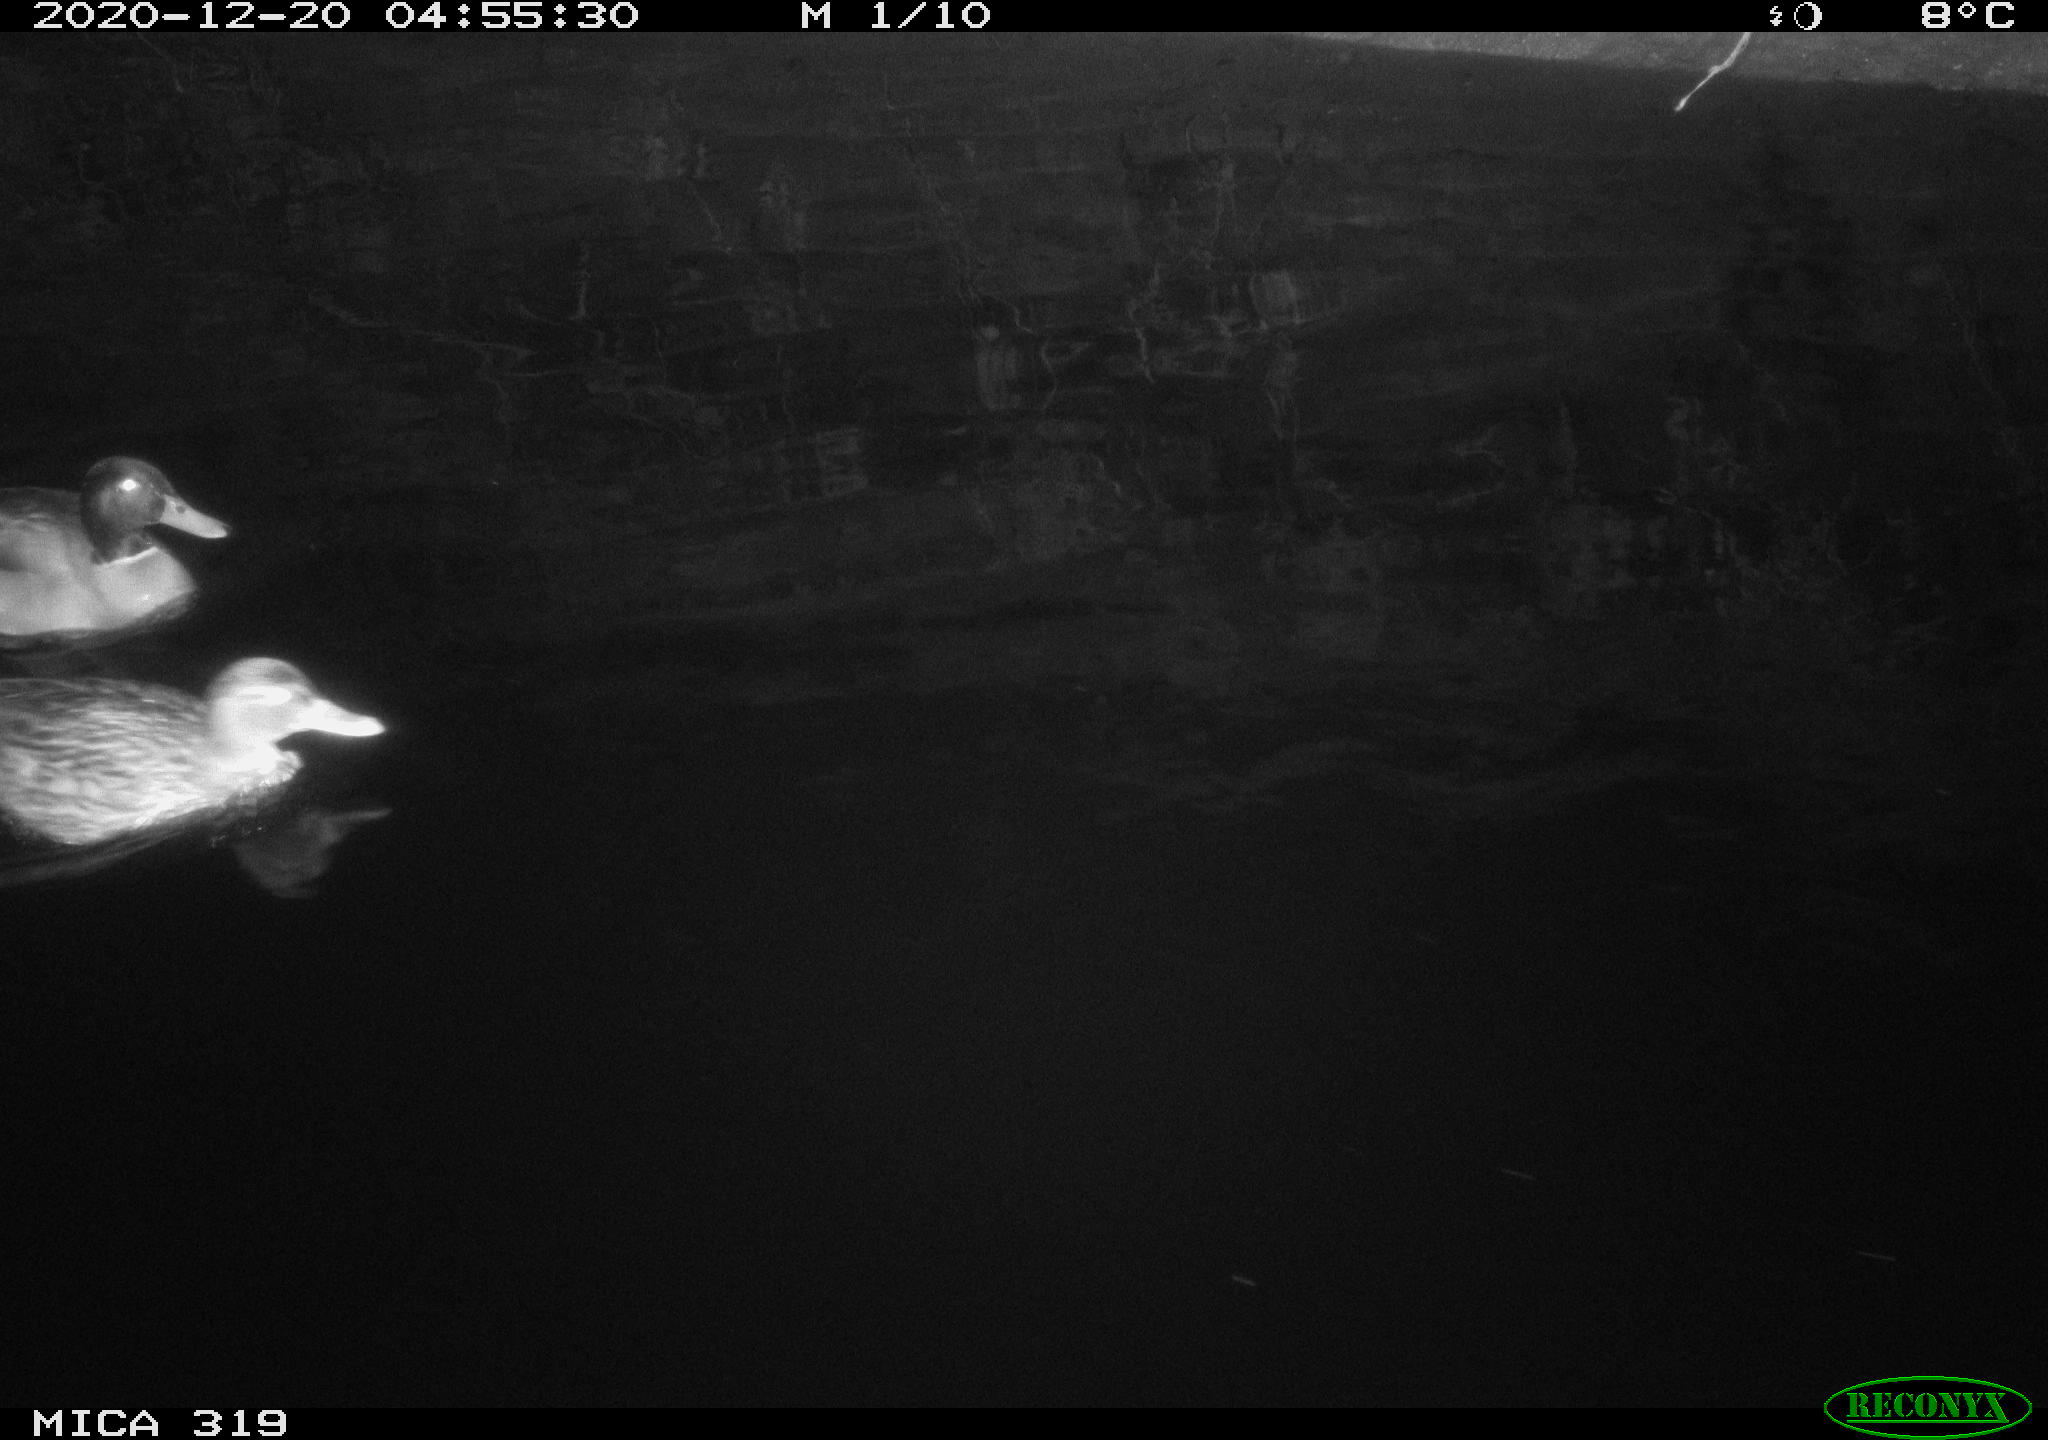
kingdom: Animalia
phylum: Chordata
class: Aves
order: Anseriformes
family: Anatidae
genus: Anas
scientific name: Anas platyrhynchos
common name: Mallard
